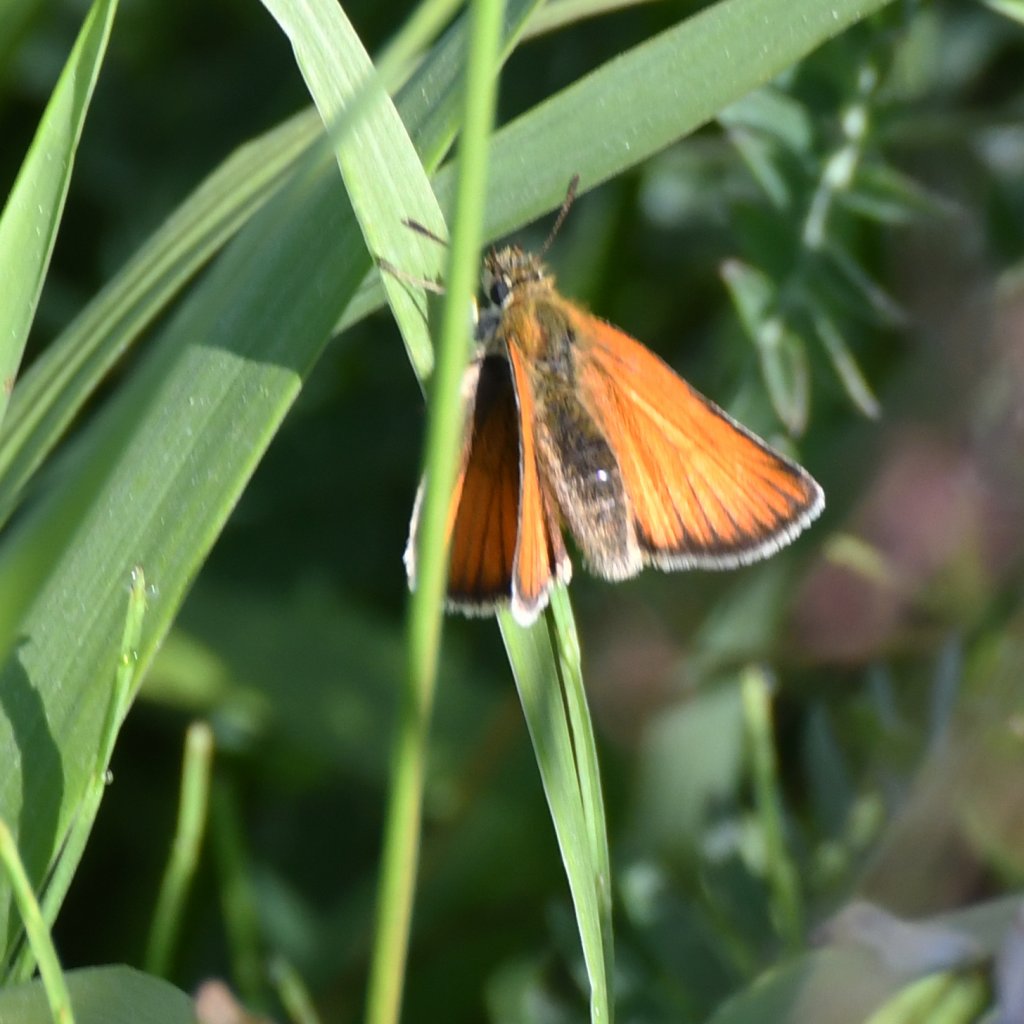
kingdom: Animalia
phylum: Arthropoda
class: Insecta
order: Lepidoptera
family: Hesperiidae
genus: Thymelicus
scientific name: Thymelicus lineola
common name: European Skipper
